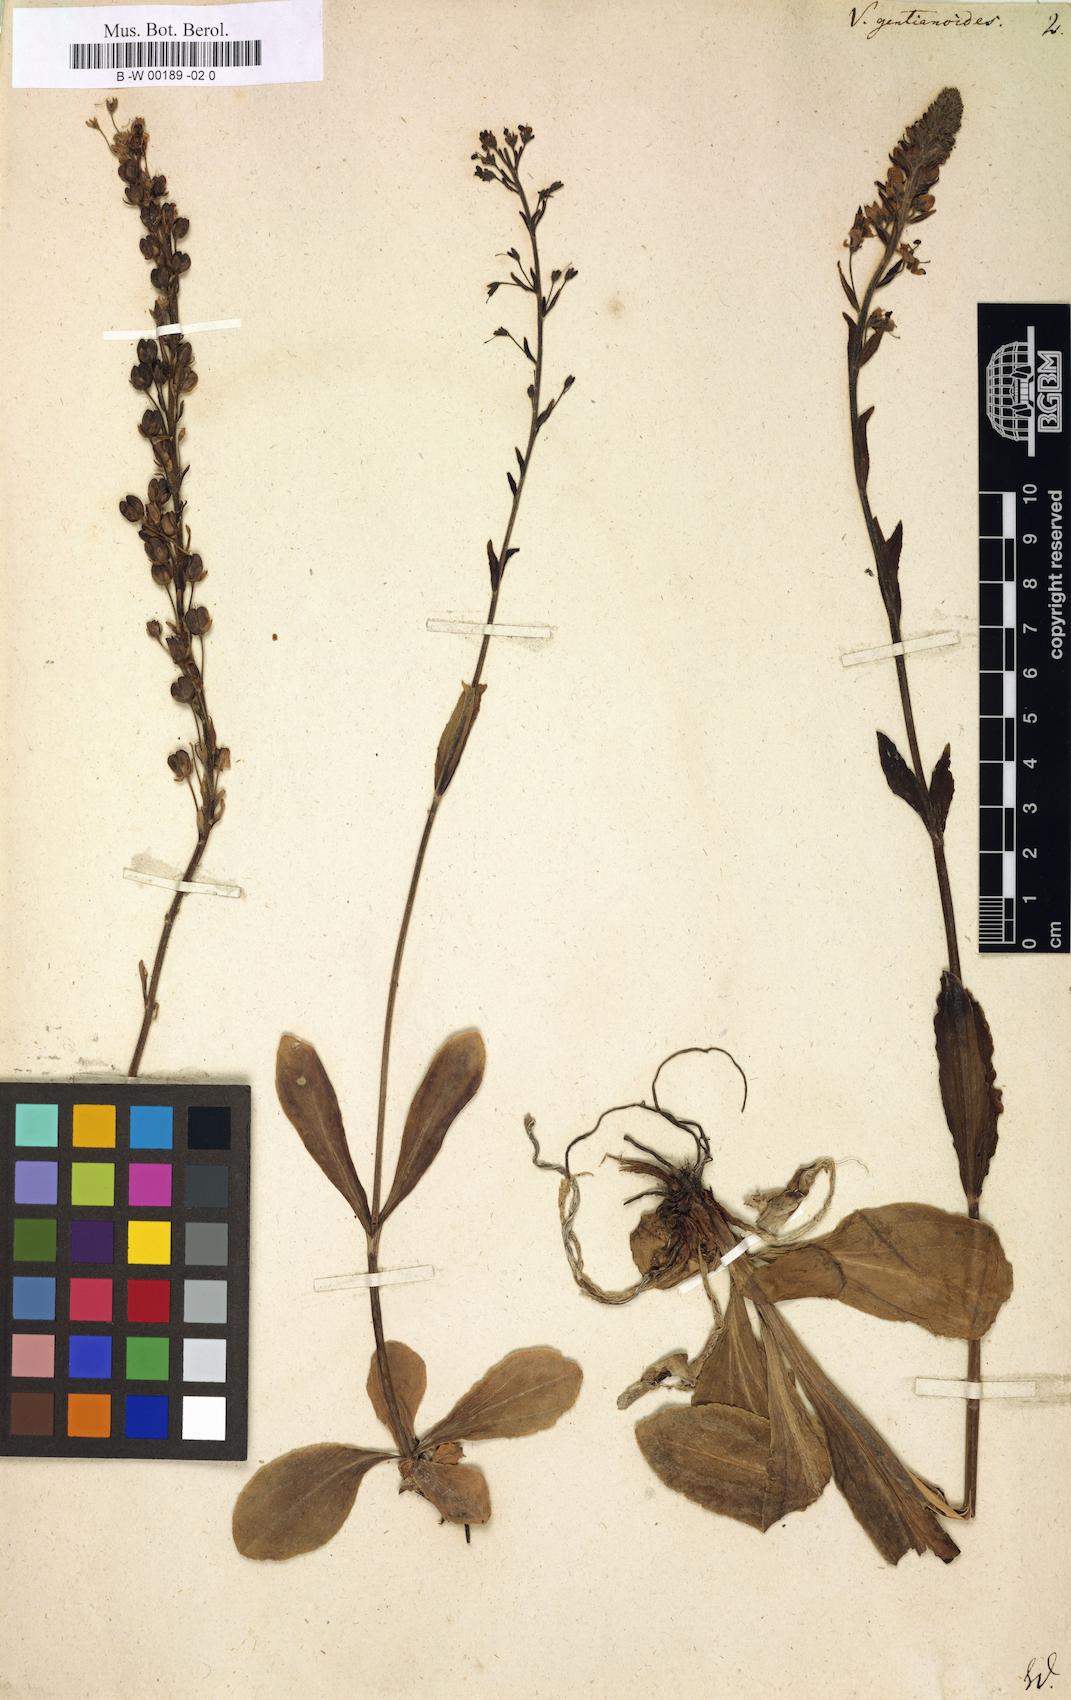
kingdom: Plantae
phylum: Tracheophyta
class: Magnoliopsida
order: Lamiales
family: Plantaginaceae
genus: Veronica
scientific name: Veronica gentianoides
